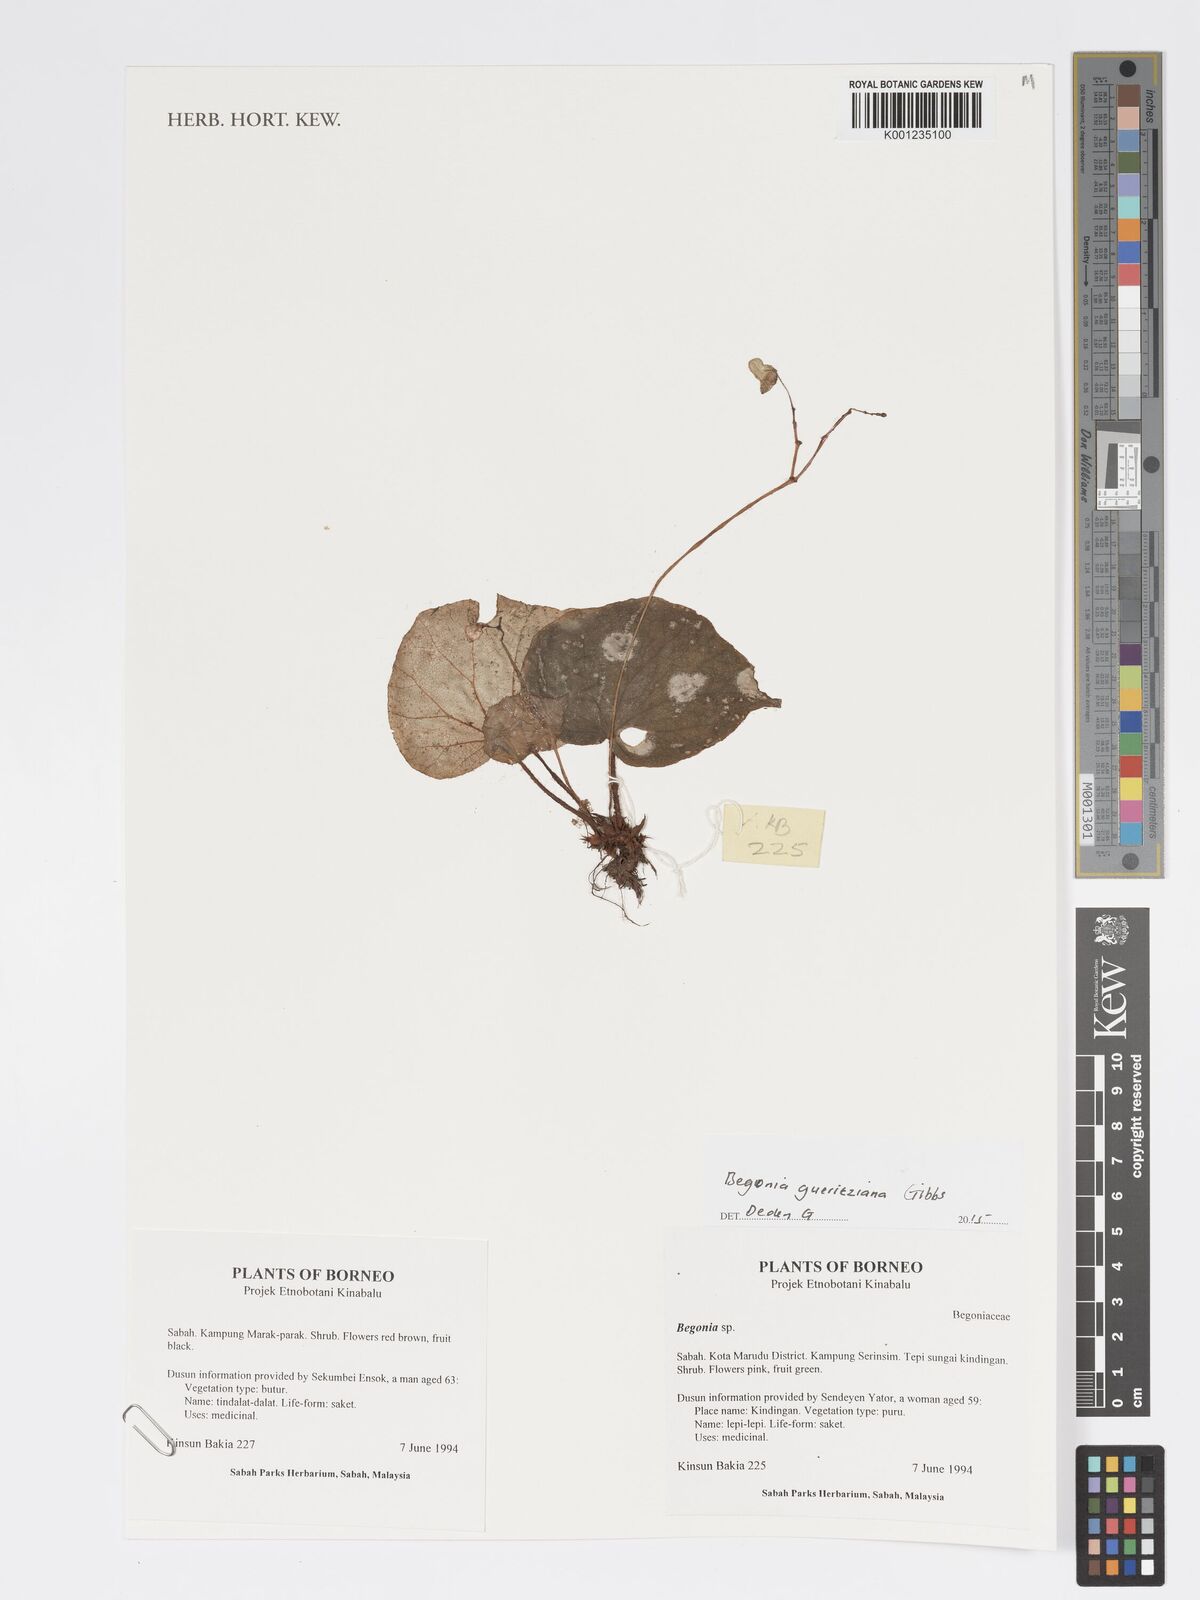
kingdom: Plantae
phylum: Tracheophyta
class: Magnoliopsida
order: Cucurbitales
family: Begoniaceae
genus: Begonia
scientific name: Begonia gueritziana
